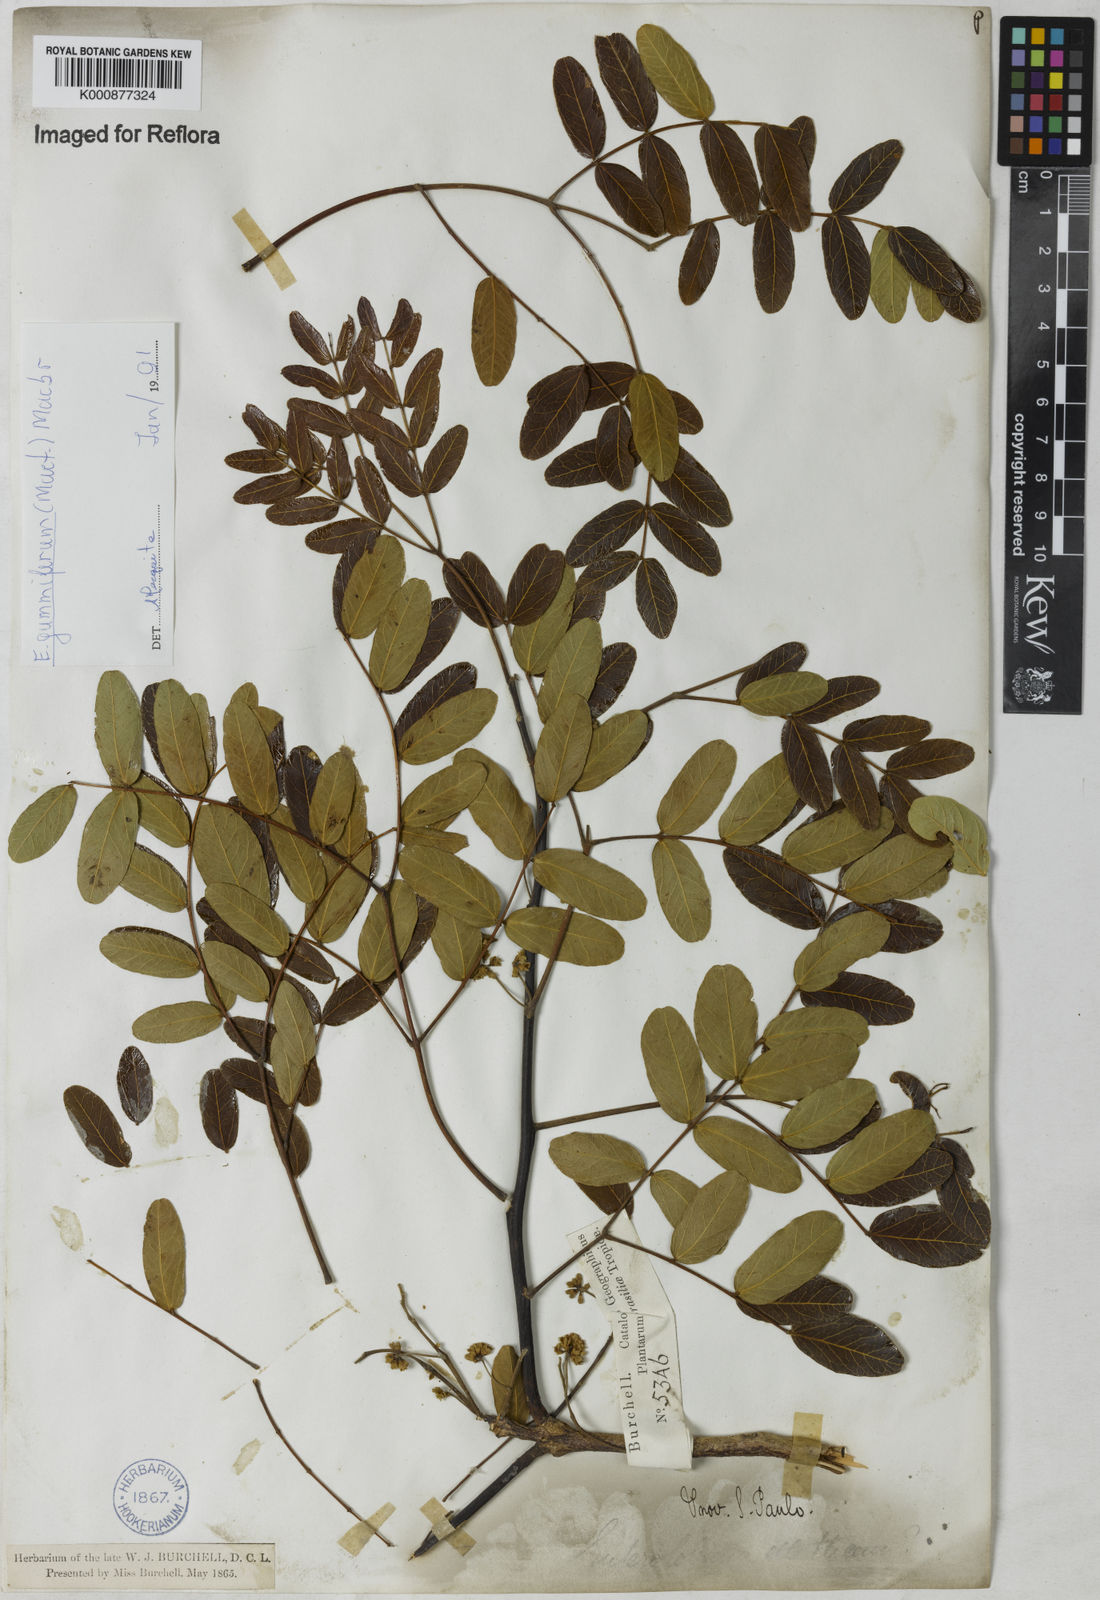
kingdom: Plantae
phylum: Tracheophyta
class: Magnoliopsida
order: Fabales
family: Fabaceae
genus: Enterolobium
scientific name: Enterolobium gummiferum
